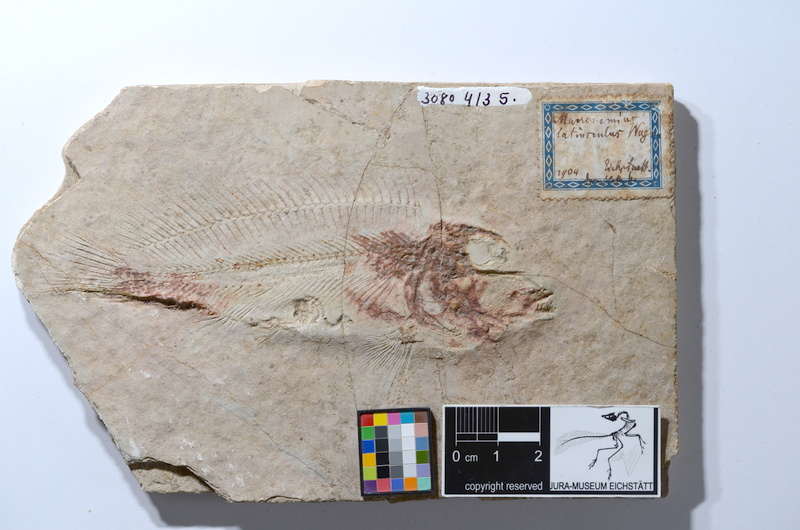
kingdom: Animalia
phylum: Chordata
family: Macrosemiidae
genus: Macrosemius
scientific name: Macrosemius rostratus
